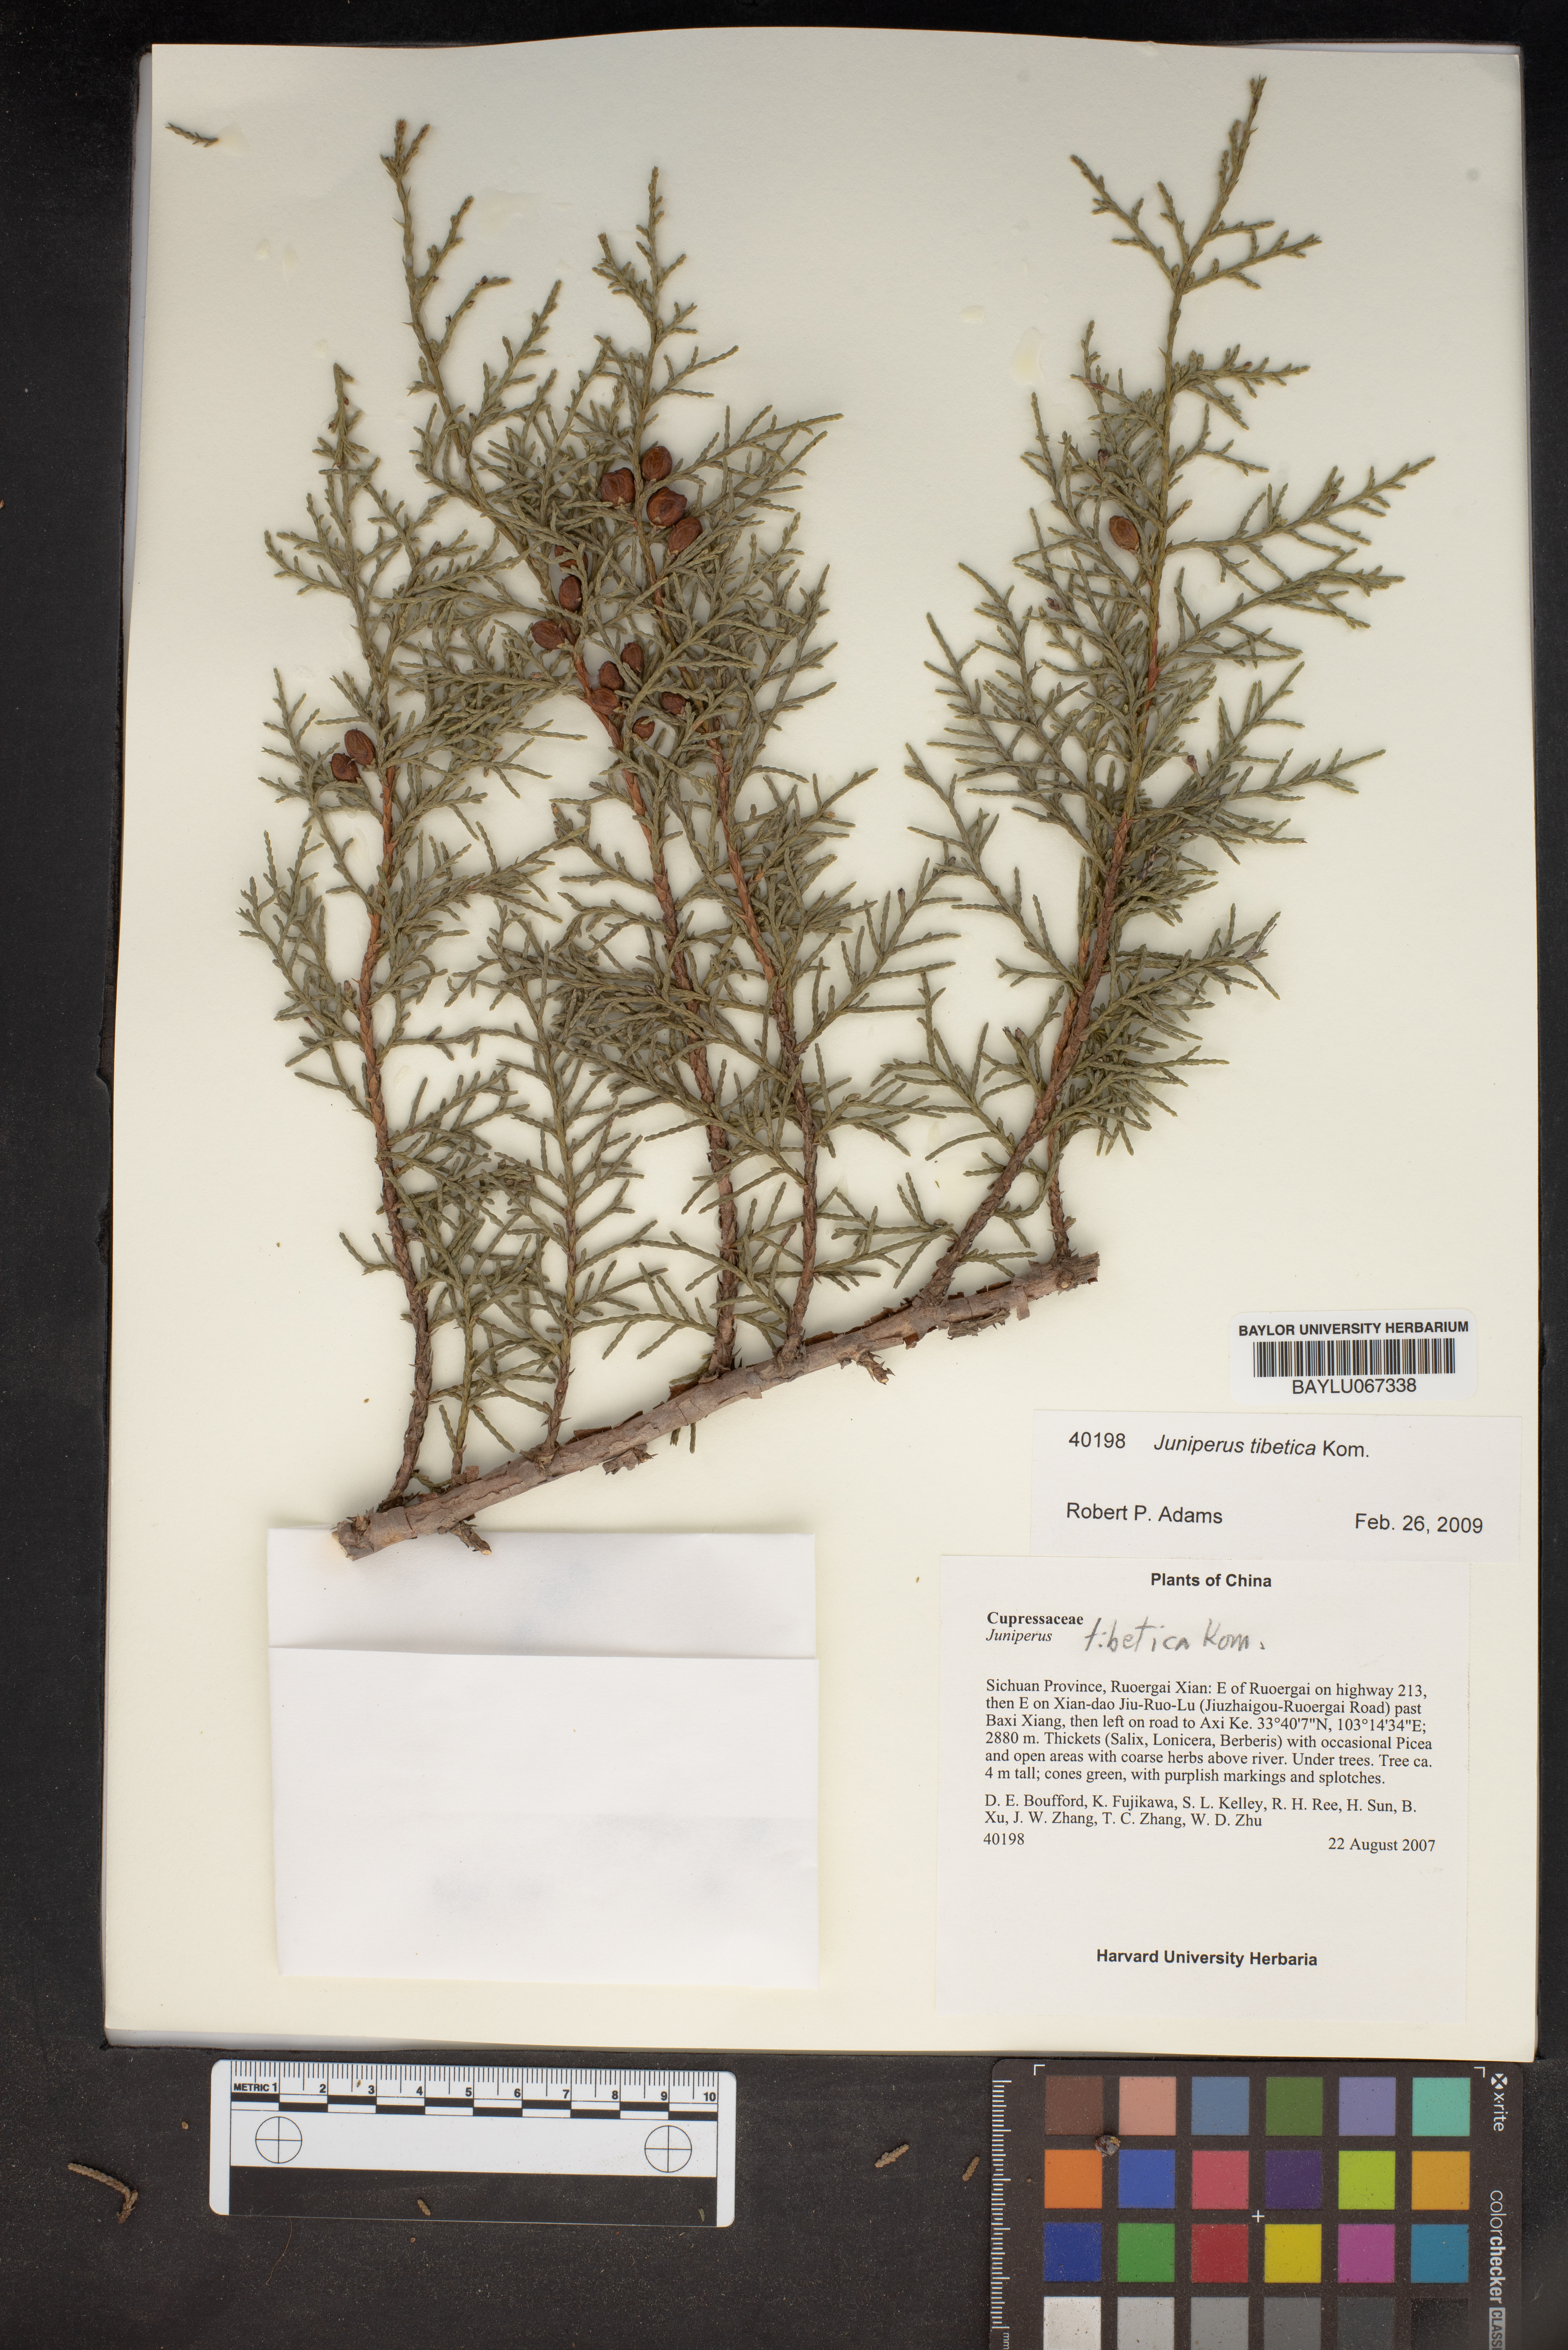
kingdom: Plantae
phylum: Tracheophyta
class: Pinopsida
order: Pinales
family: Cupressaceae
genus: Juniperus
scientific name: Juniperus tibetica
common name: Tibetan juniper
